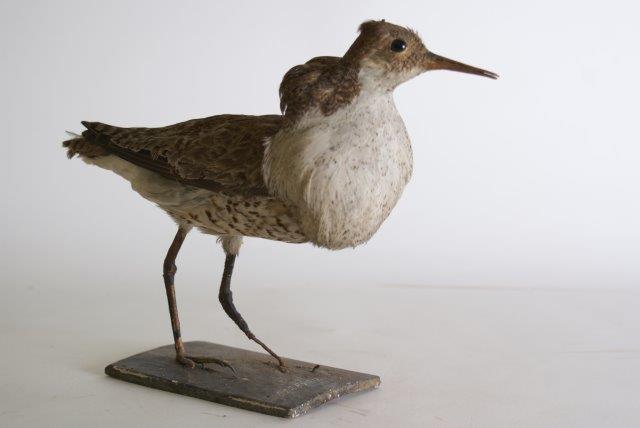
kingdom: Animalia
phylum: Chordata
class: Aves
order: Charadriiformes
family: Scolopacidae
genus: Calidris
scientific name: Calidris pugnax
